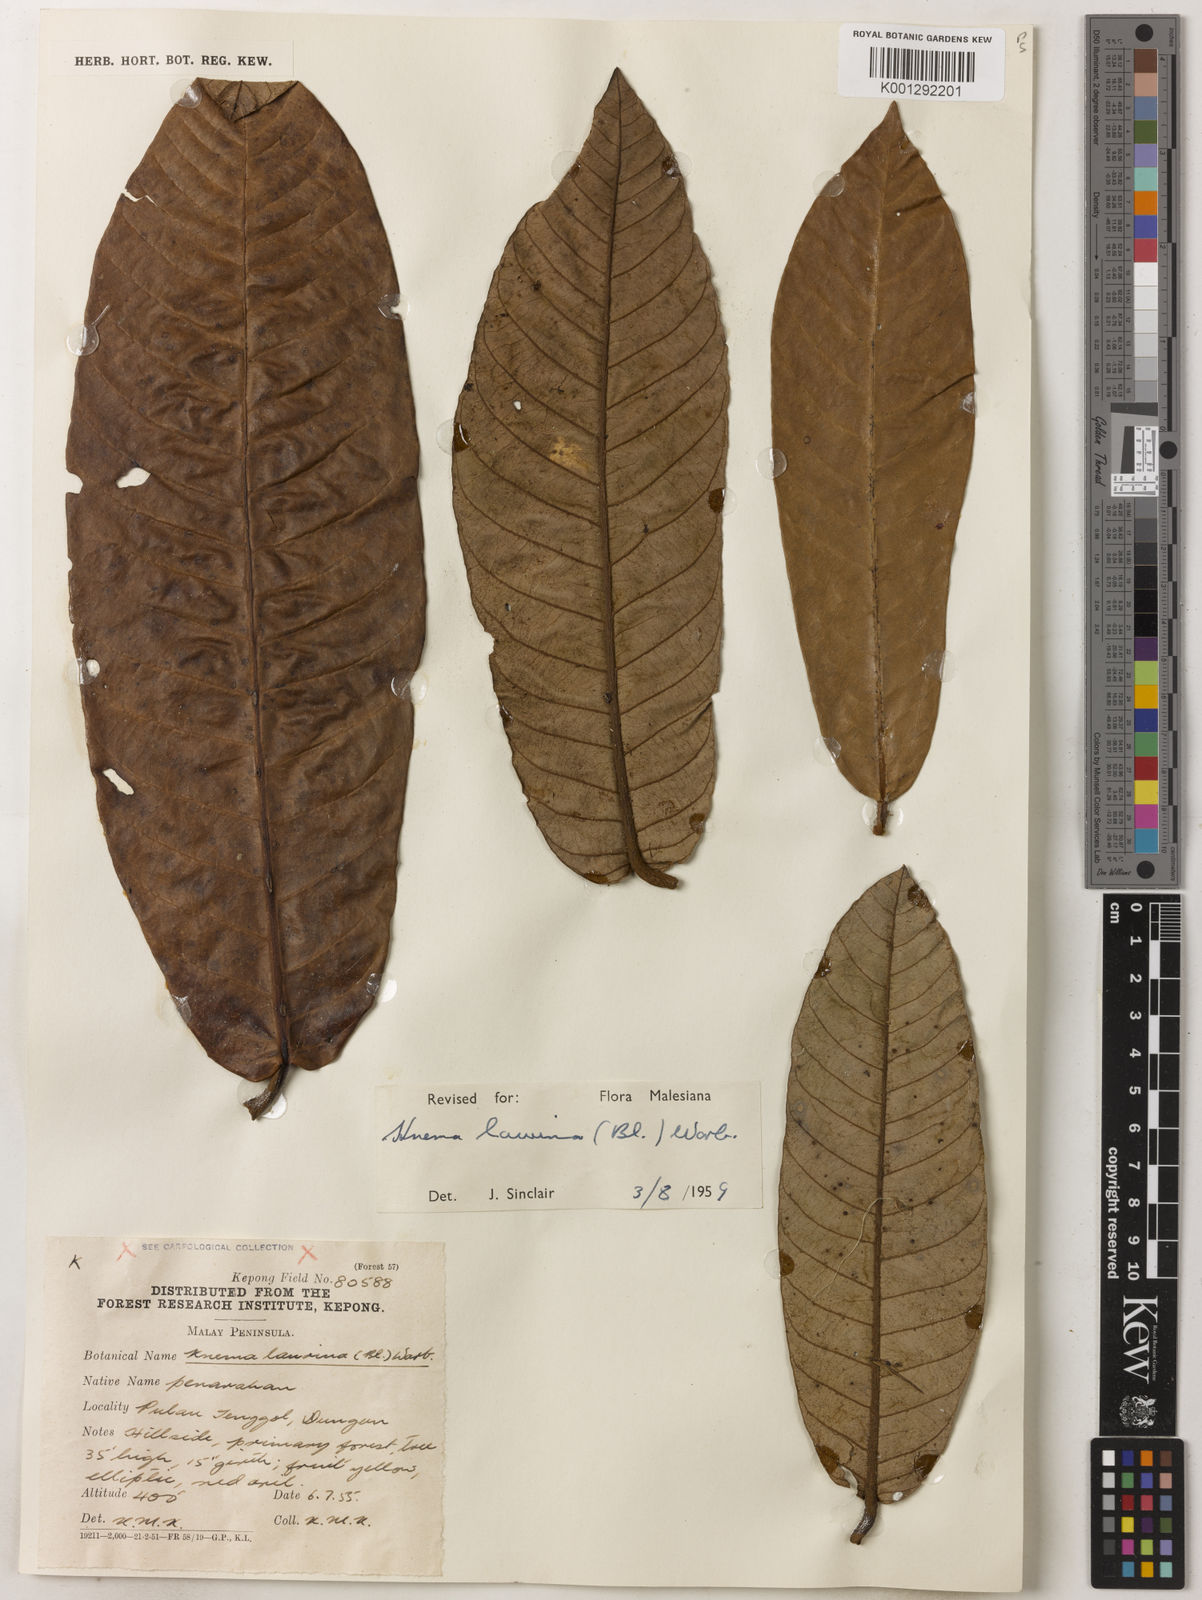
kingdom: Plantae
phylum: Tracheophyta
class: Magnoliopsida
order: Magnoliales
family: Myristicaceae
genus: Knema
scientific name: Knema laurina
